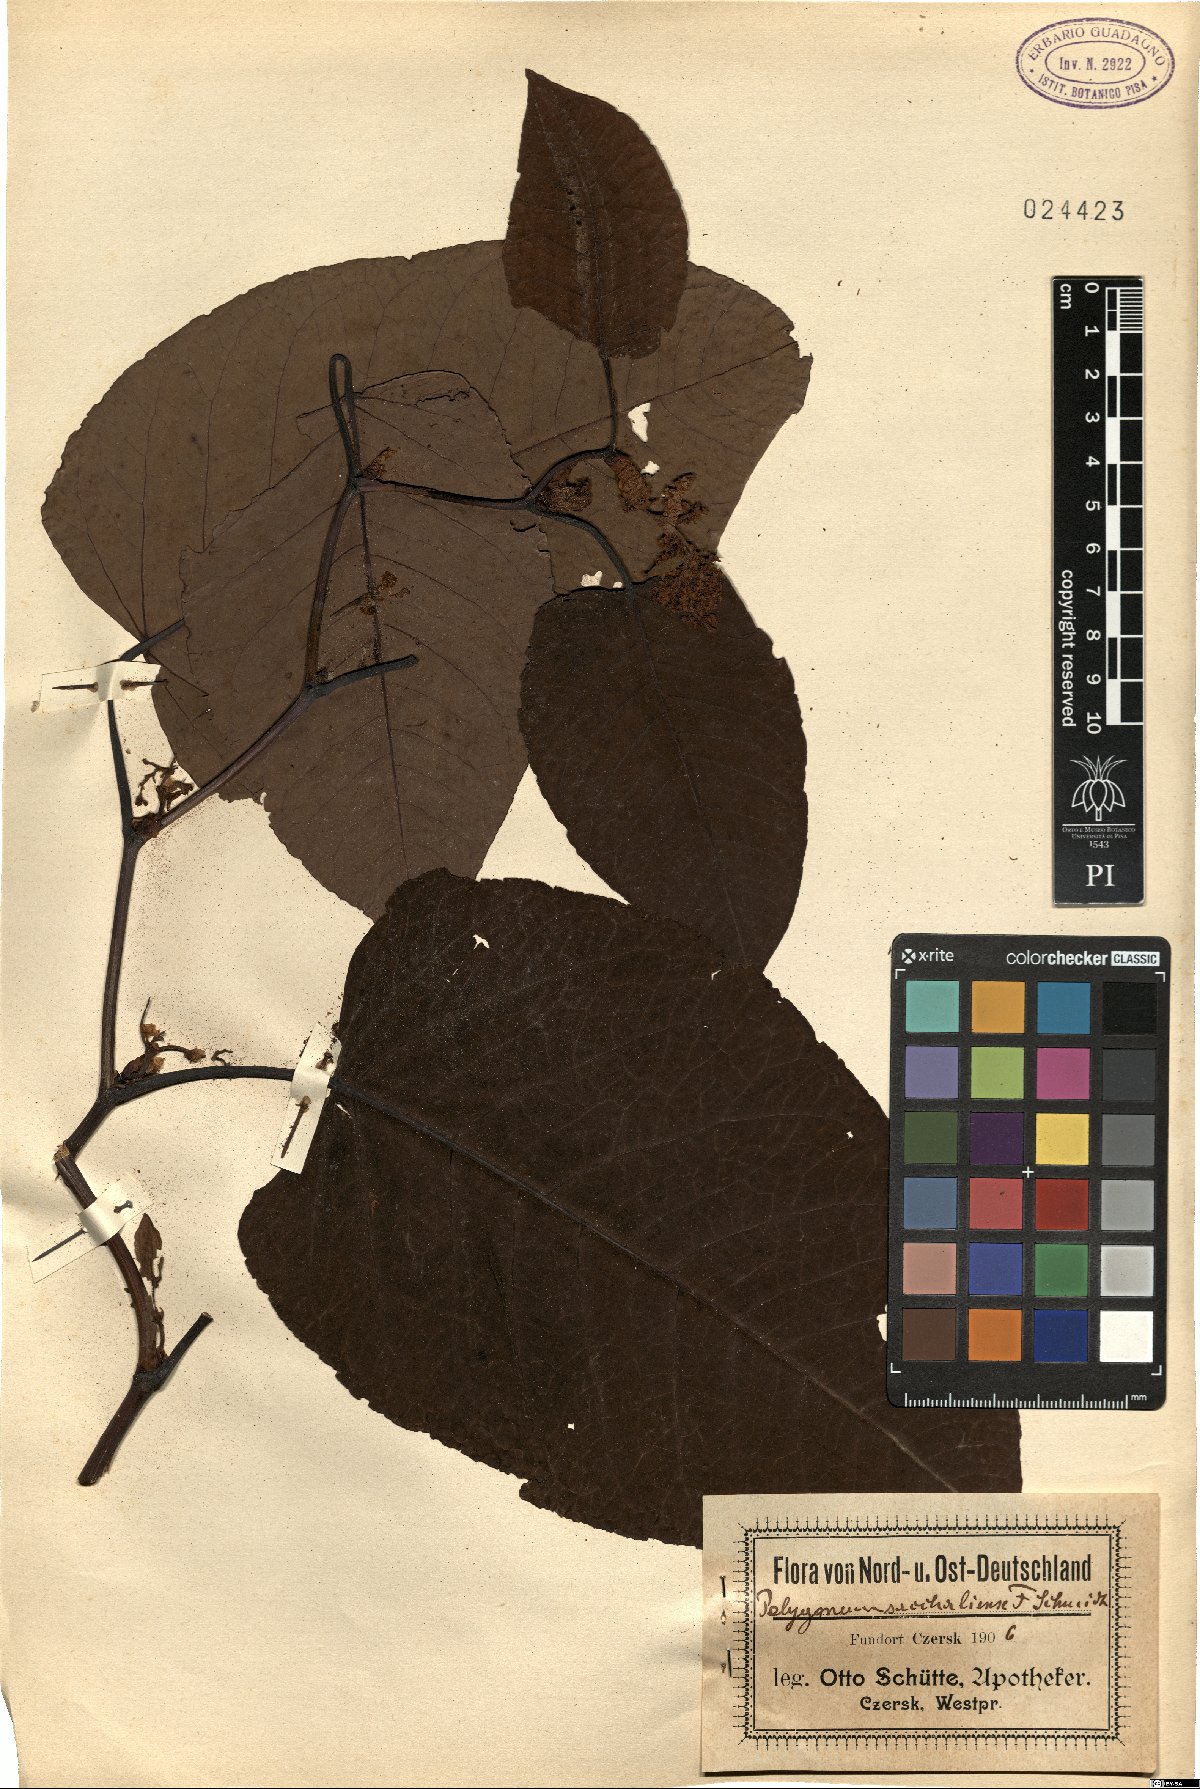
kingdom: Plantae
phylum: Tracheophyta
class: Magnoliopsida
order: Caryophyllales
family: Polygonaceae
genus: Reynoutria
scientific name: Reynoutria sachalinensis
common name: Giant knotweed
